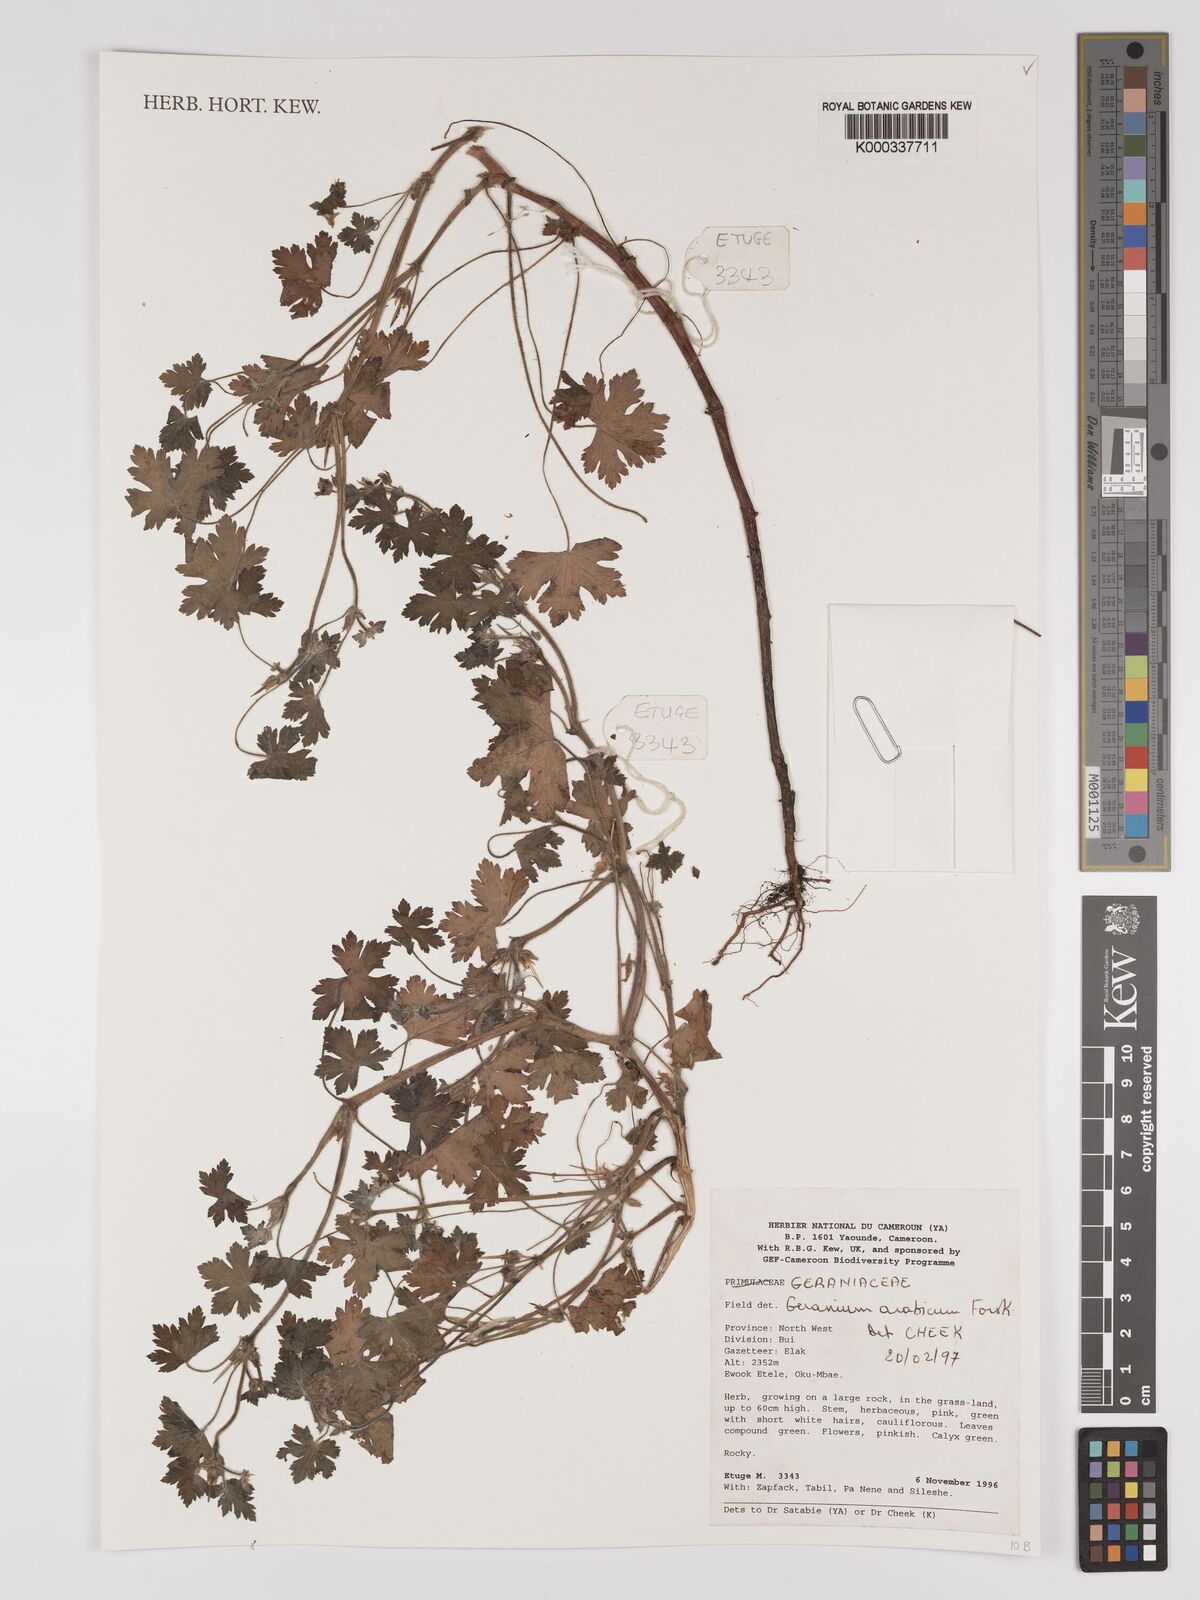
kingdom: Plantae
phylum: Tracheophyta
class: Magnoliopsida
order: Geraniales
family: Geraniaceae
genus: Geranium
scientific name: Geranium arabicum
